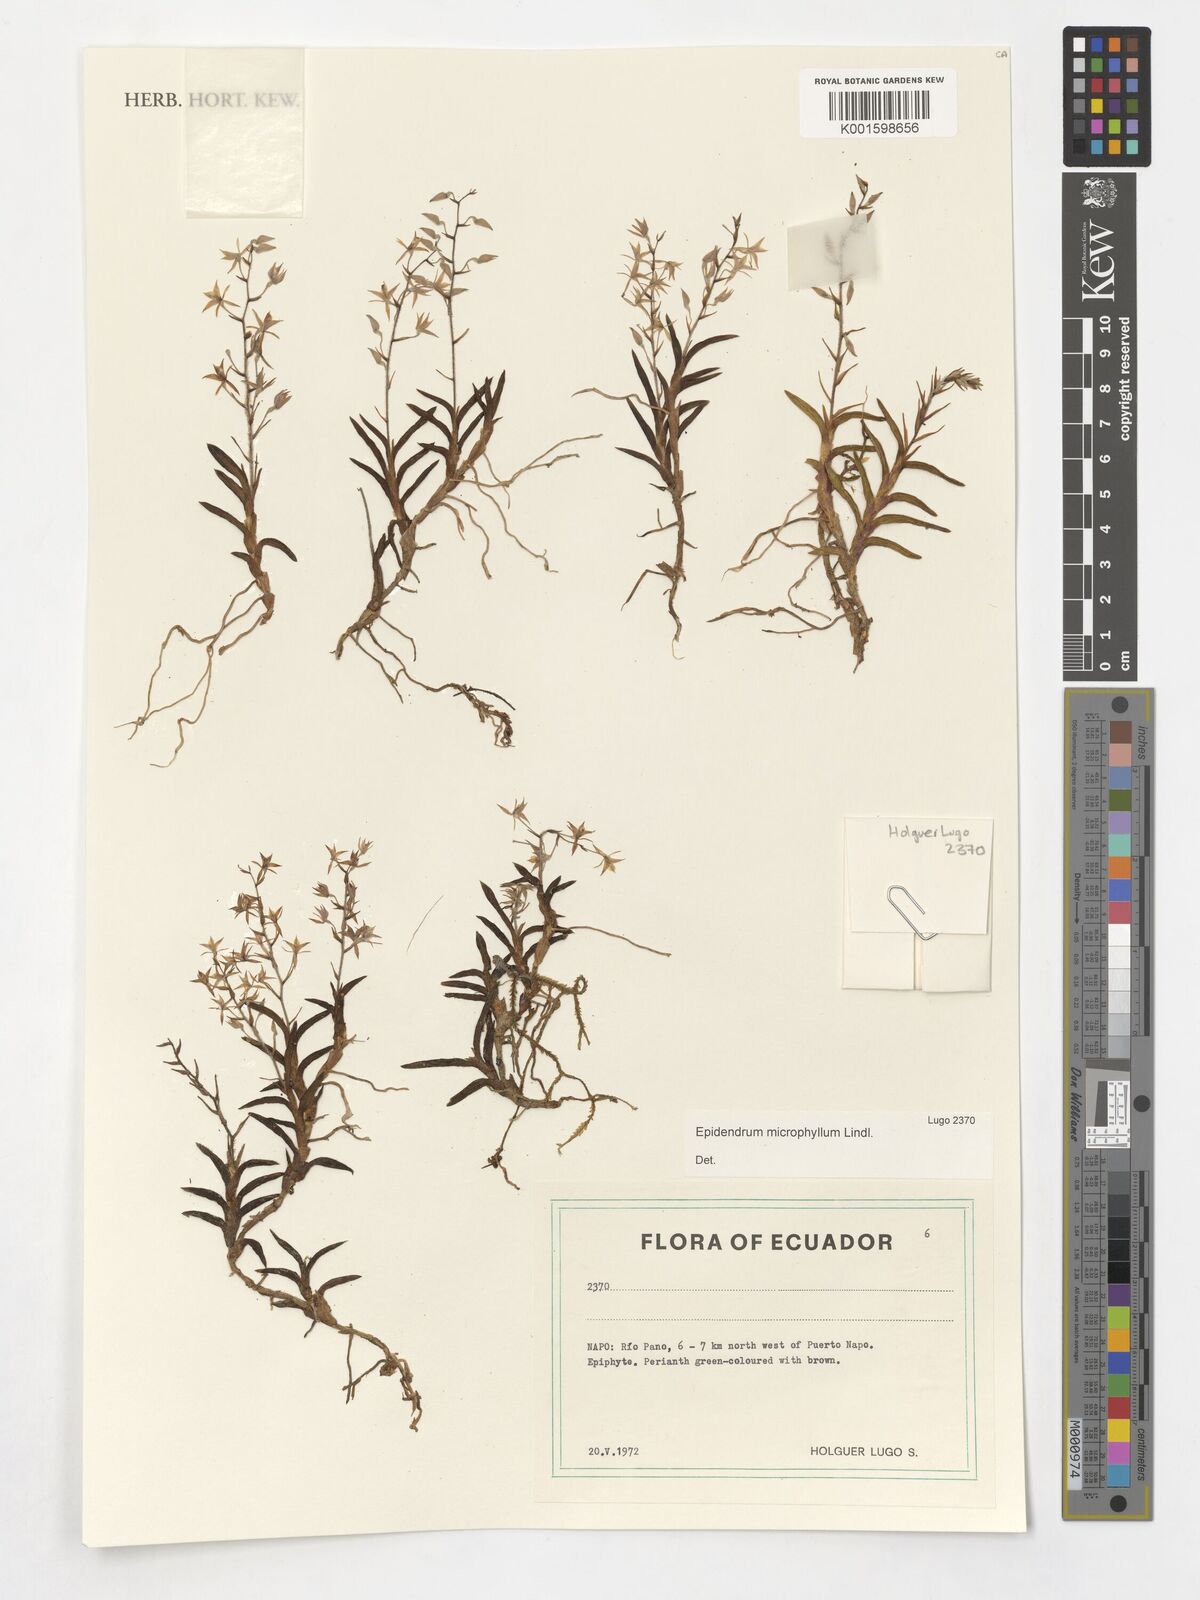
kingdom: Plantae
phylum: Tracheophyta
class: Liliopsida
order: Asparagales
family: Orchidaceae
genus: Epidendrum
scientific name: Epidendrum microphyllum
